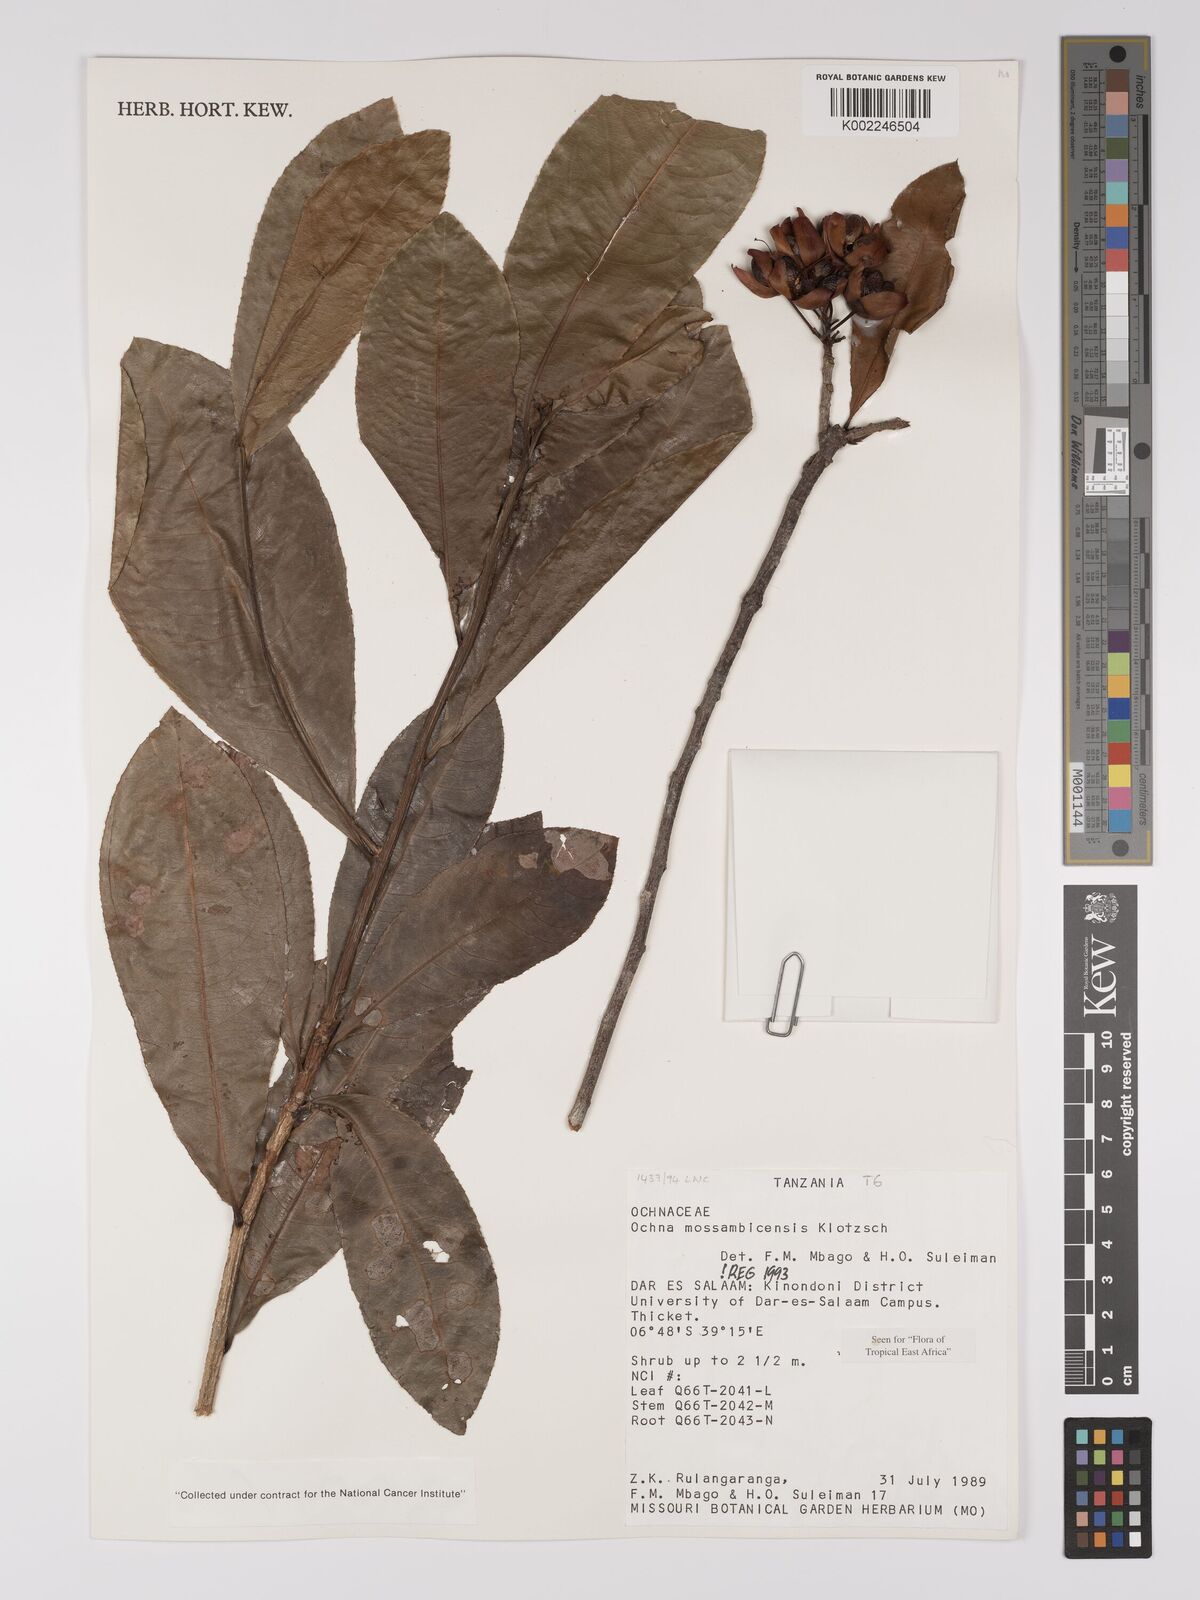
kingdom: Plantae
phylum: Tracheophyta
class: Magnoliopsida
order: Malpighiales
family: Ochnaceae
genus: Ochna
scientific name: Ochna atropurpurea
